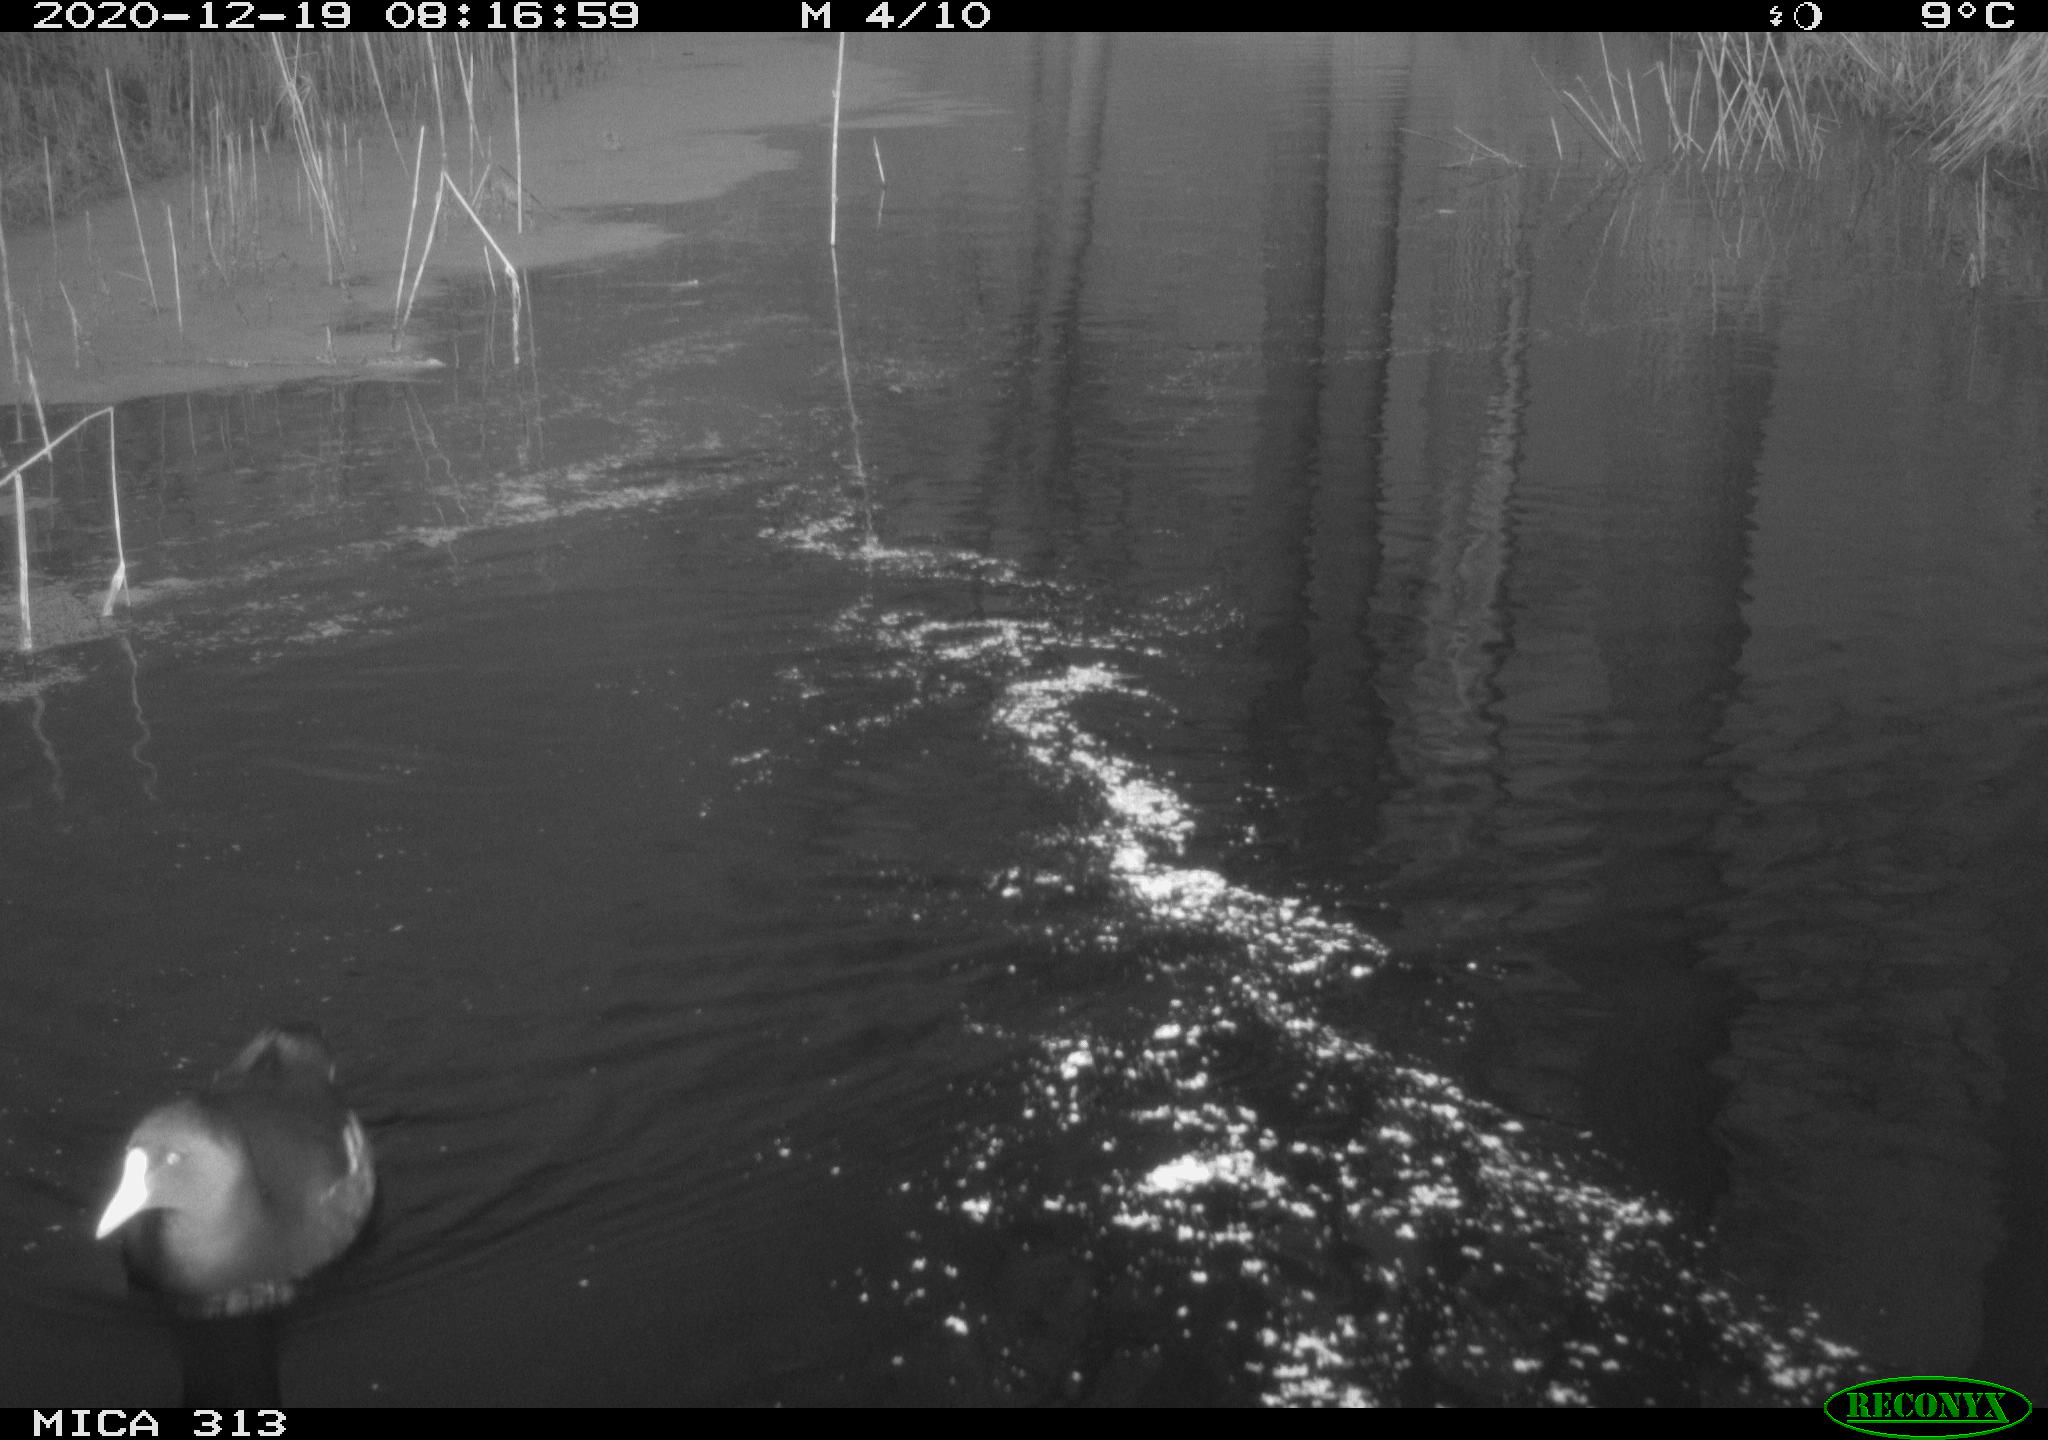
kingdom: Animalia
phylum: Chordata
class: Aves
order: Gruiformes
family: Rallidae
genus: Gallinula
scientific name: Gallinula chloropus
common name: Common moorhen
